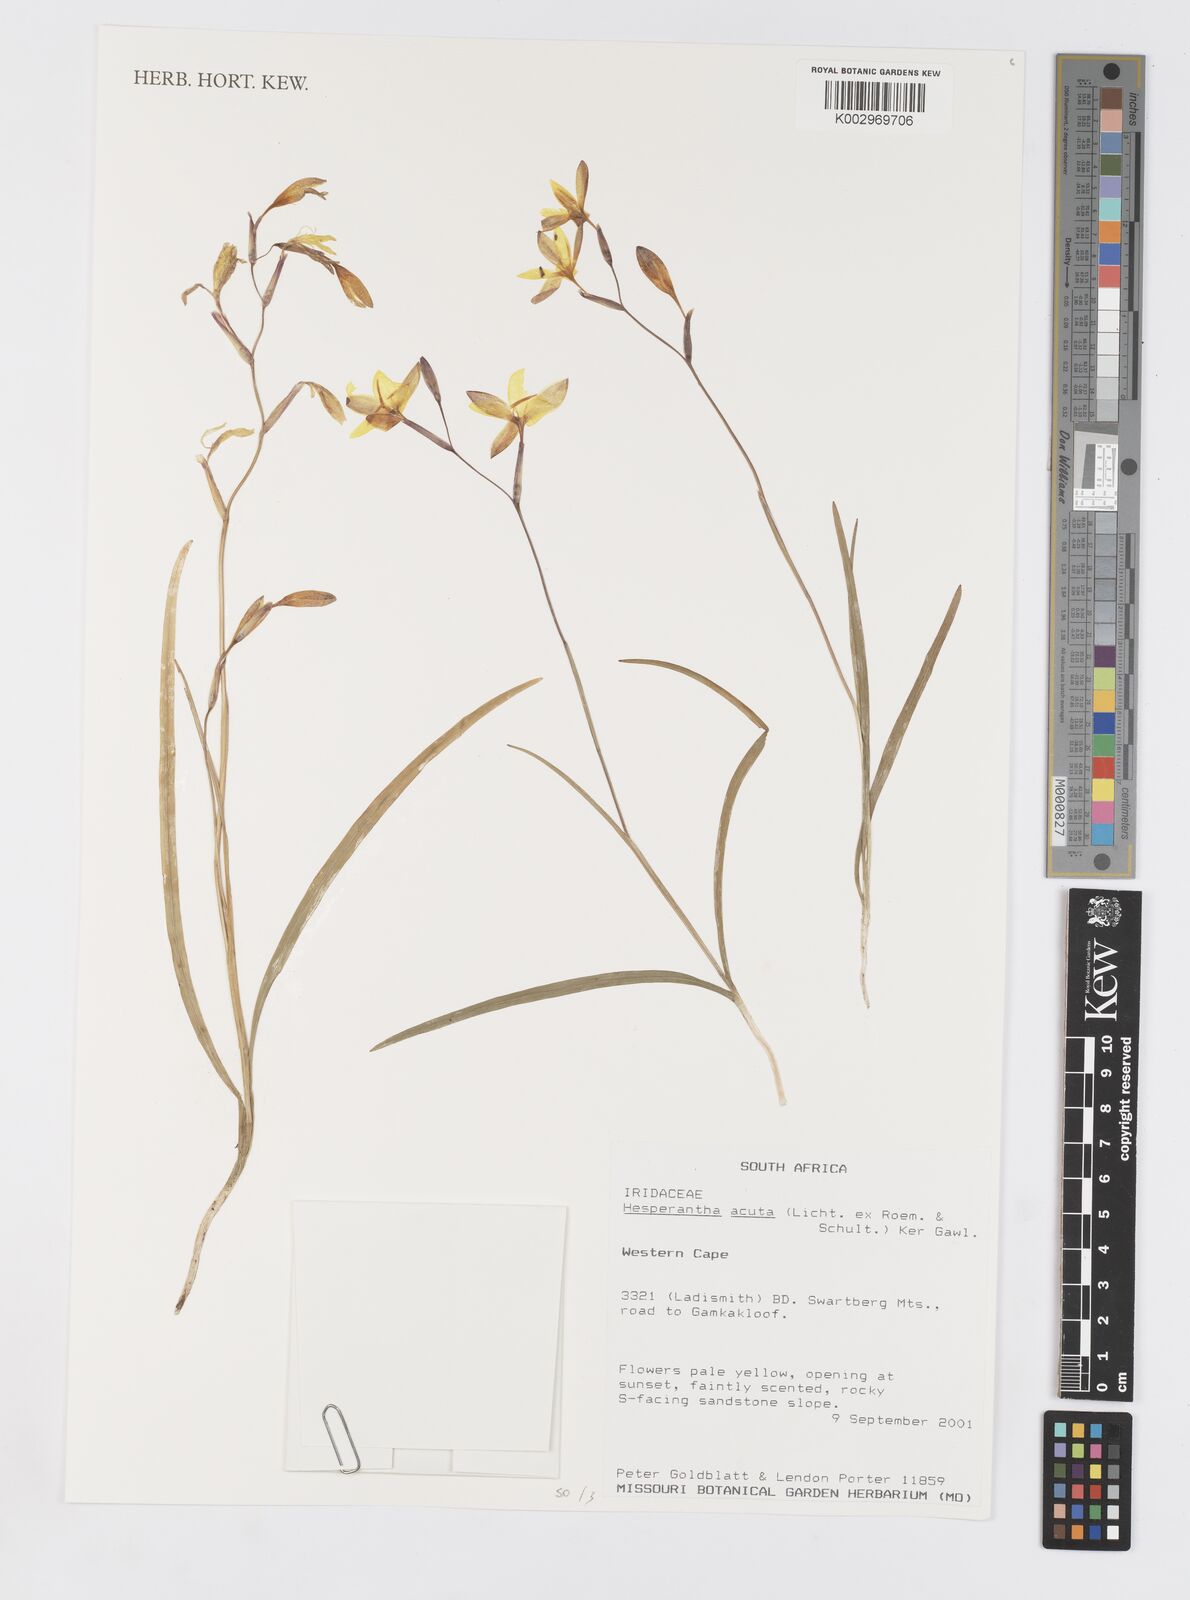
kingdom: Plantae
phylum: Tracheophyta
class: Liliopsida
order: Asparagales
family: Iridaceae
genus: Hesperantha
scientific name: Hesperantha acuta
